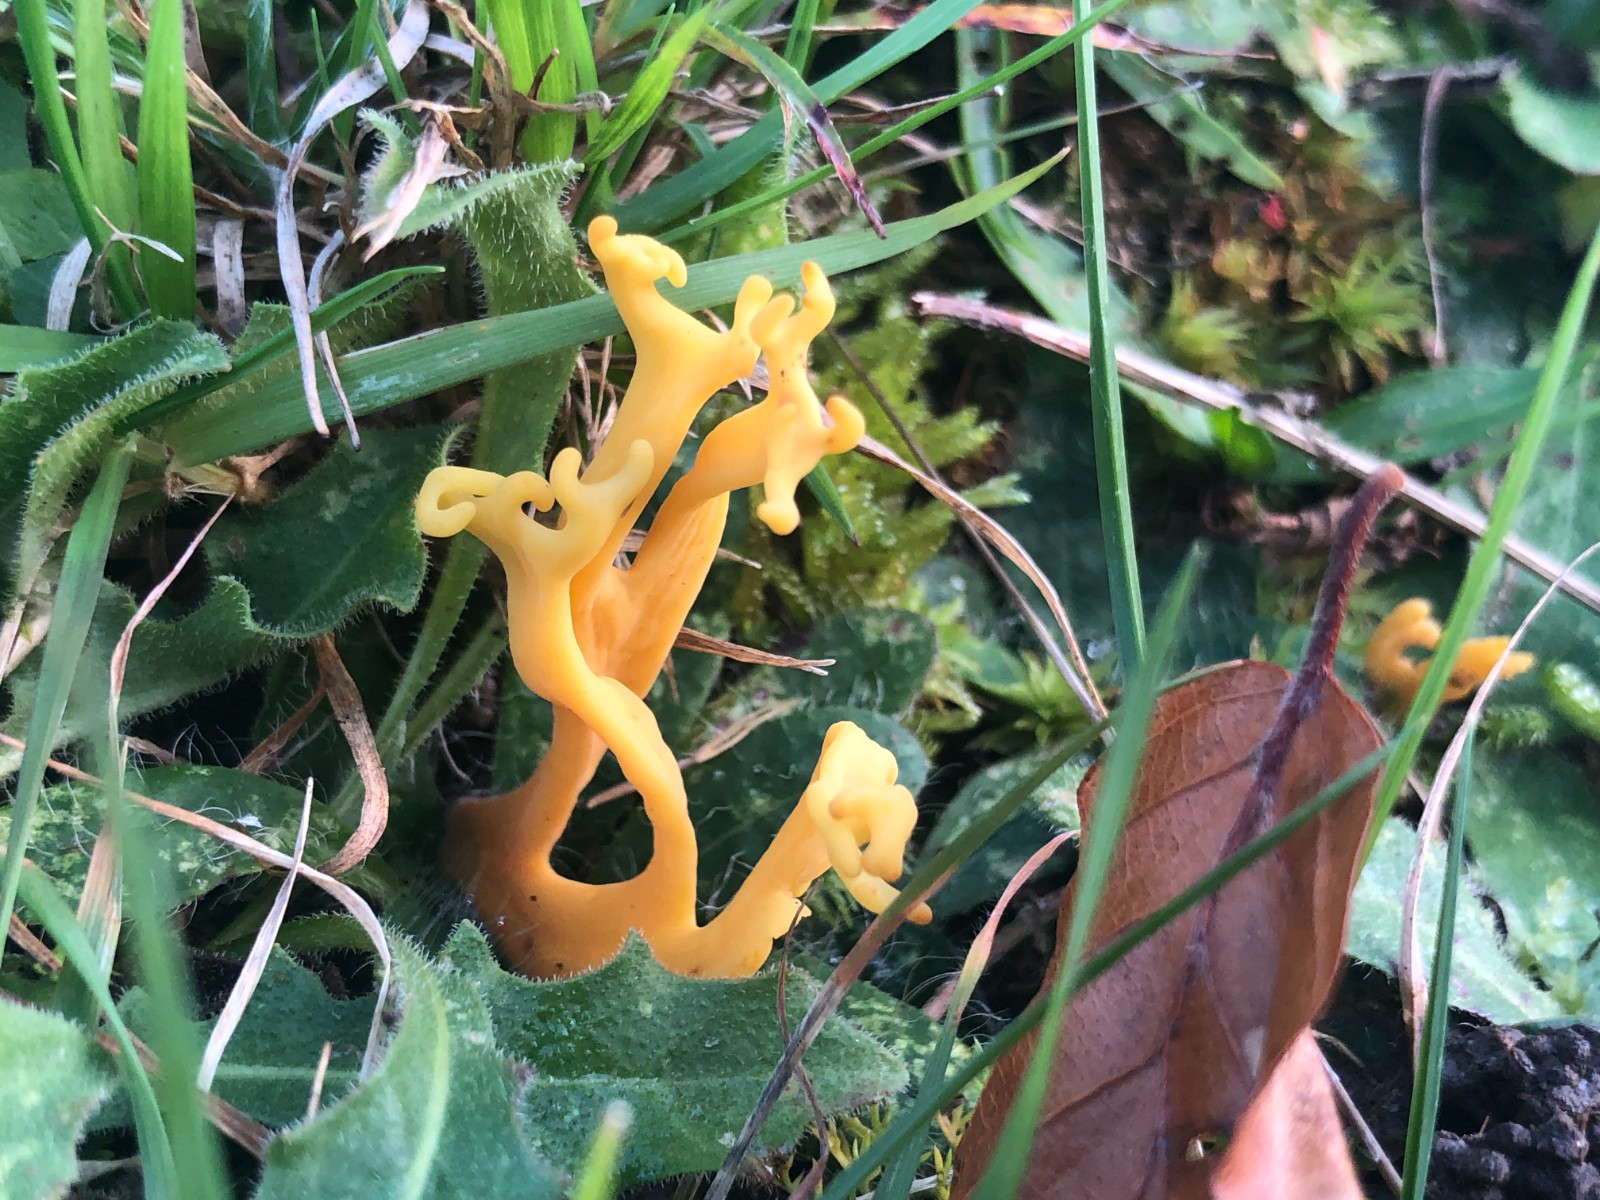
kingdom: Fungi
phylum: Basidiomycota
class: Agaricomycetes
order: Agaricales
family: Clavariaceae
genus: Clavulinopsis
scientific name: Clavulinopsis corniculata
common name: eng-køllesvamp
